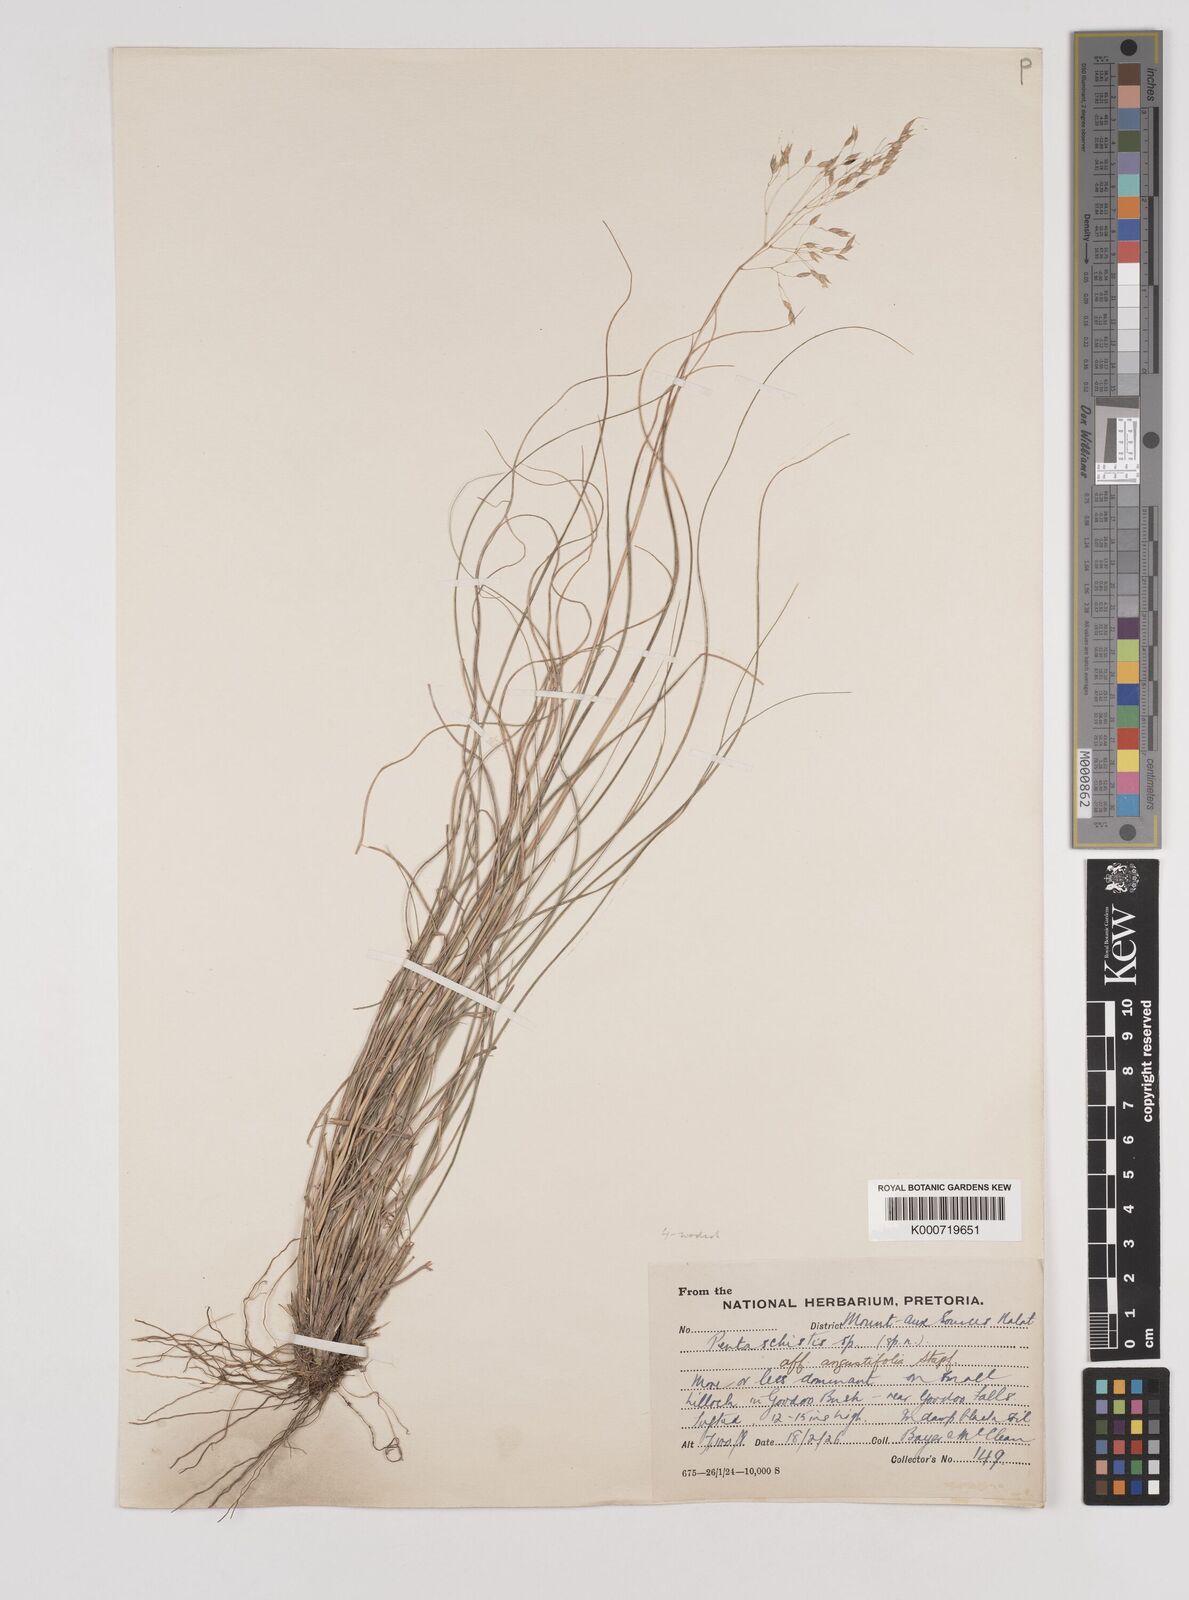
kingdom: Plantae
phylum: Tracheophyta
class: Liliopsida
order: Poales
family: Poaceae
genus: Pentameris
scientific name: Pentameris tysonii
